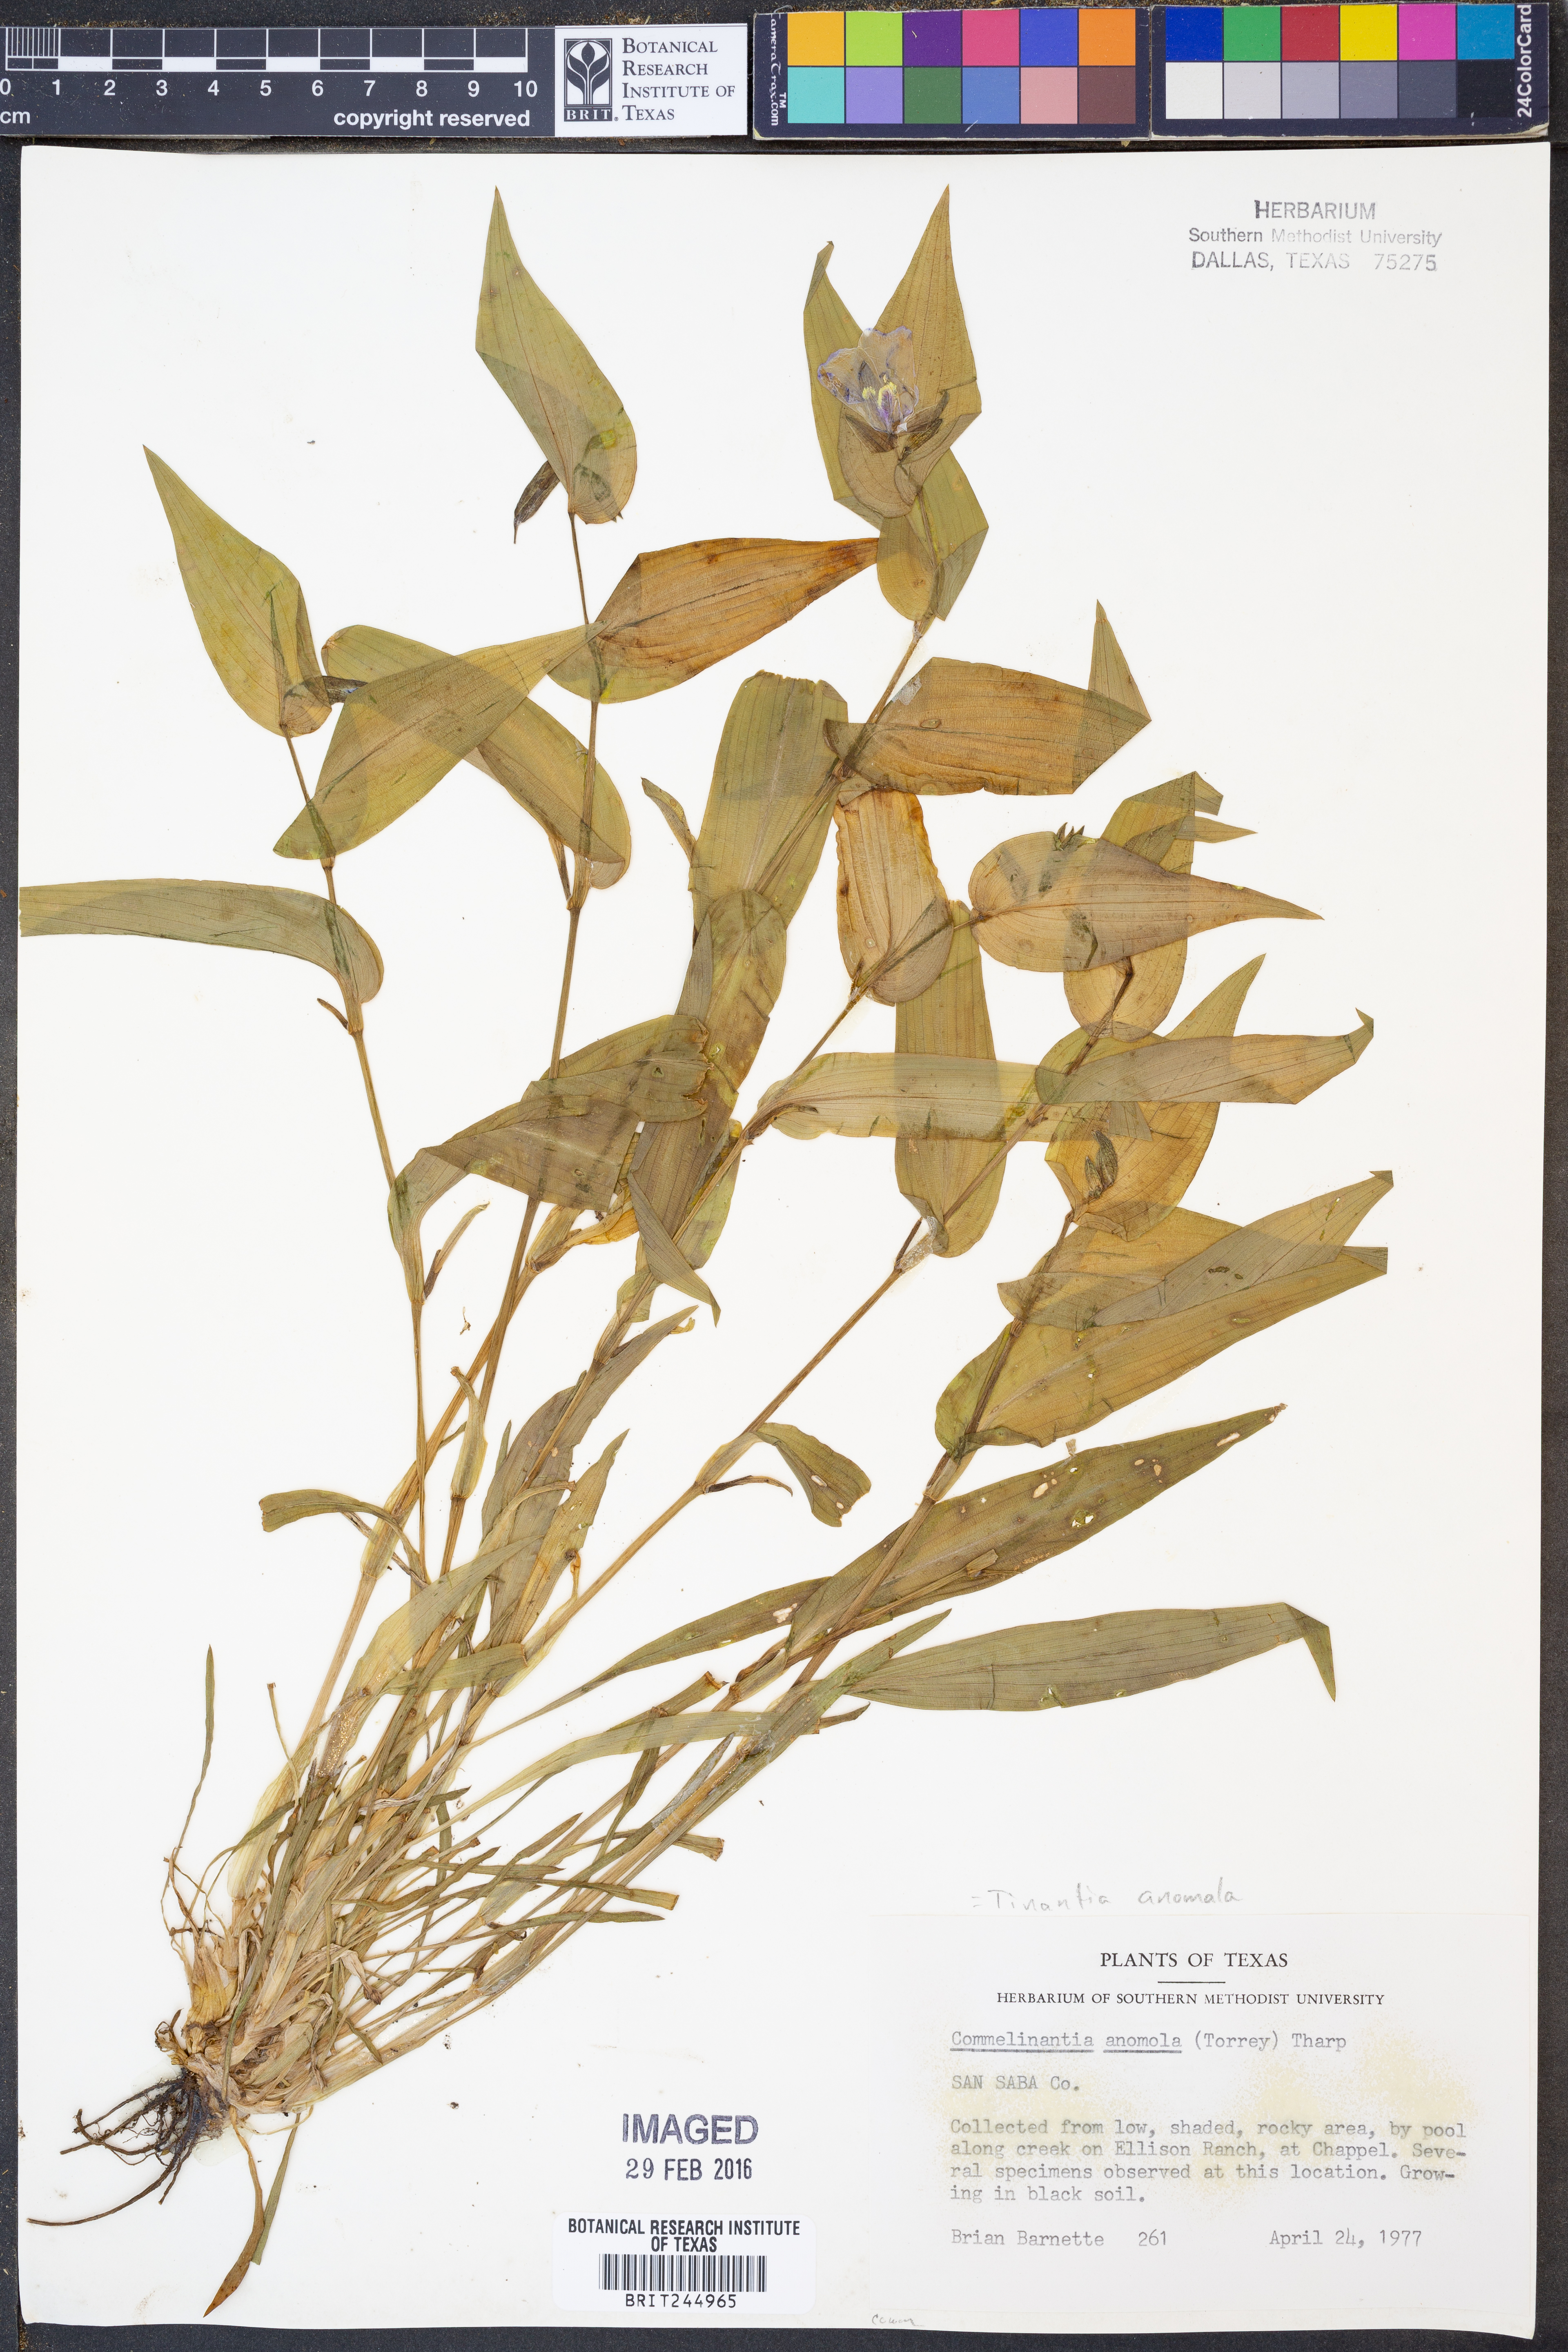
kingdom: Plantae
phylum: Tracheophyta
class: Liliopsida
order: Commelinales
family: Commelinaceae
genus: Tinantia
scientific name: Tinantia anomala
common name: False dayflower
